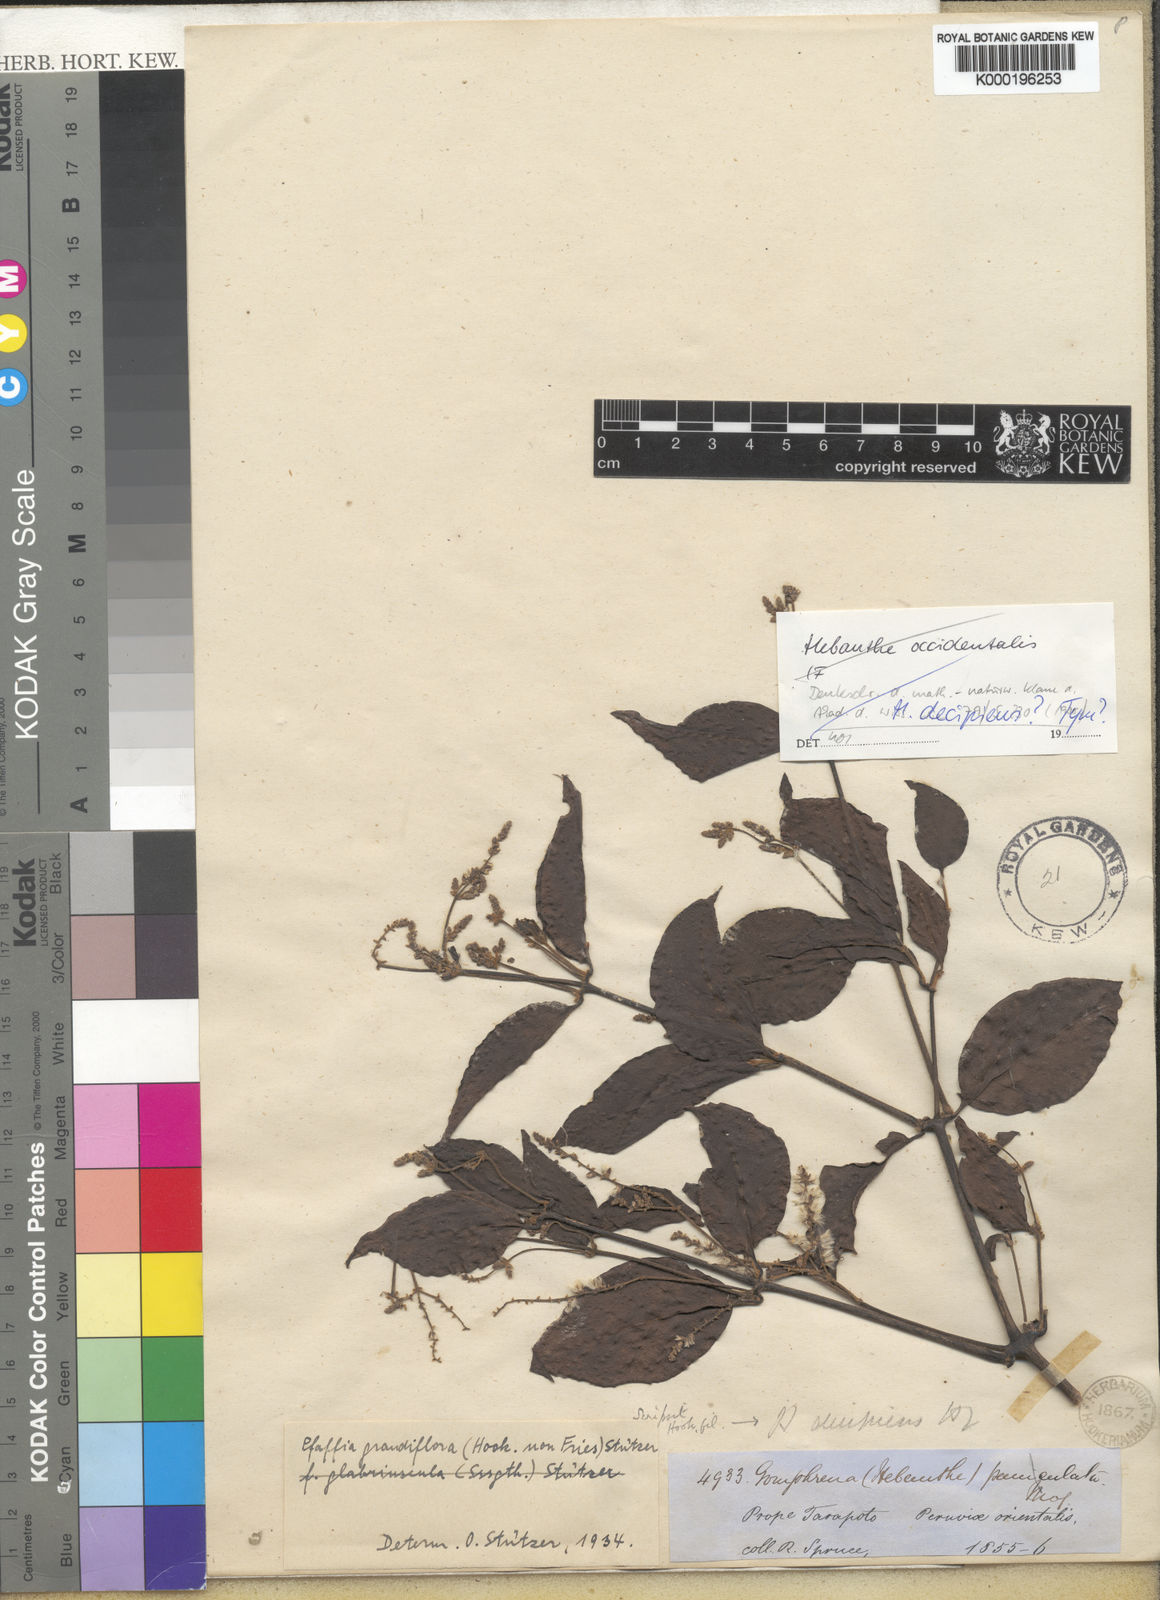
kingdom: Plantae
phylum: Tracheophyta
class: Magnoliopsida
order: Caryophyllales
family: Amaranthaceae
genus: Hebanthe
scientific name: Hebanthe grandiflora
